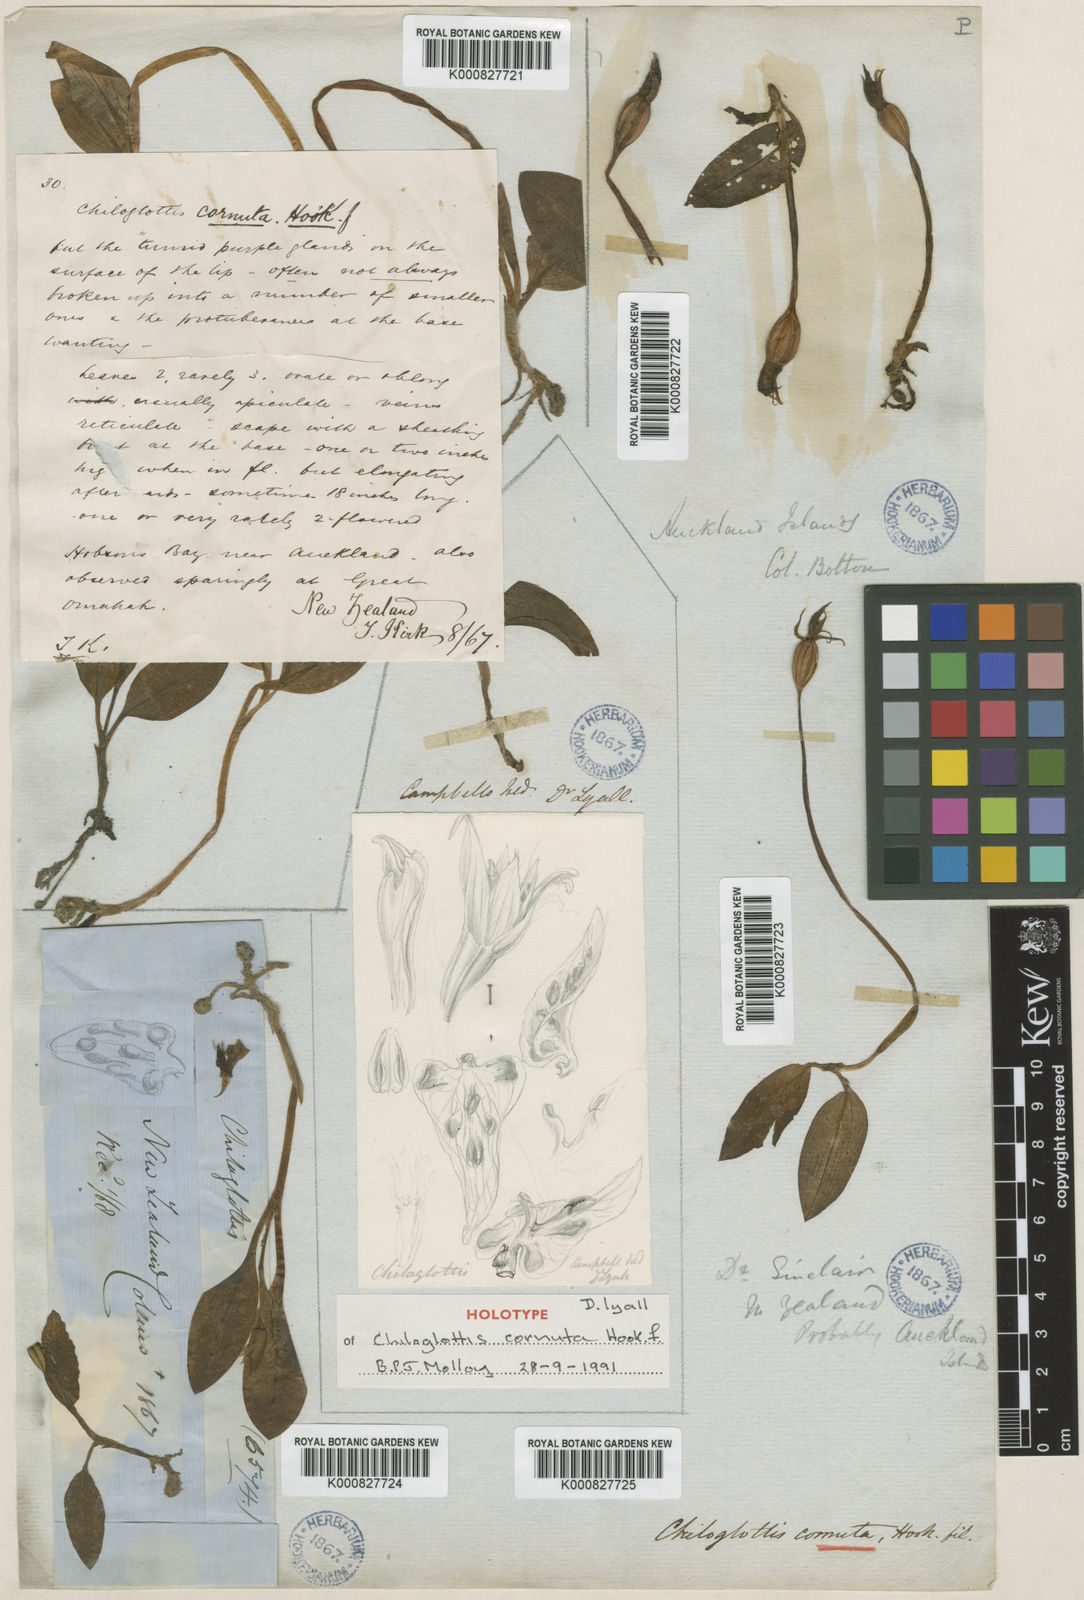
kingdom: Plantae
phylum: Tracheophyta
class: Liliopsida
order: Asparagales
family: Orchidaceae
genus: Chiloglottis
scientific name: Chiloglottis cornuta
